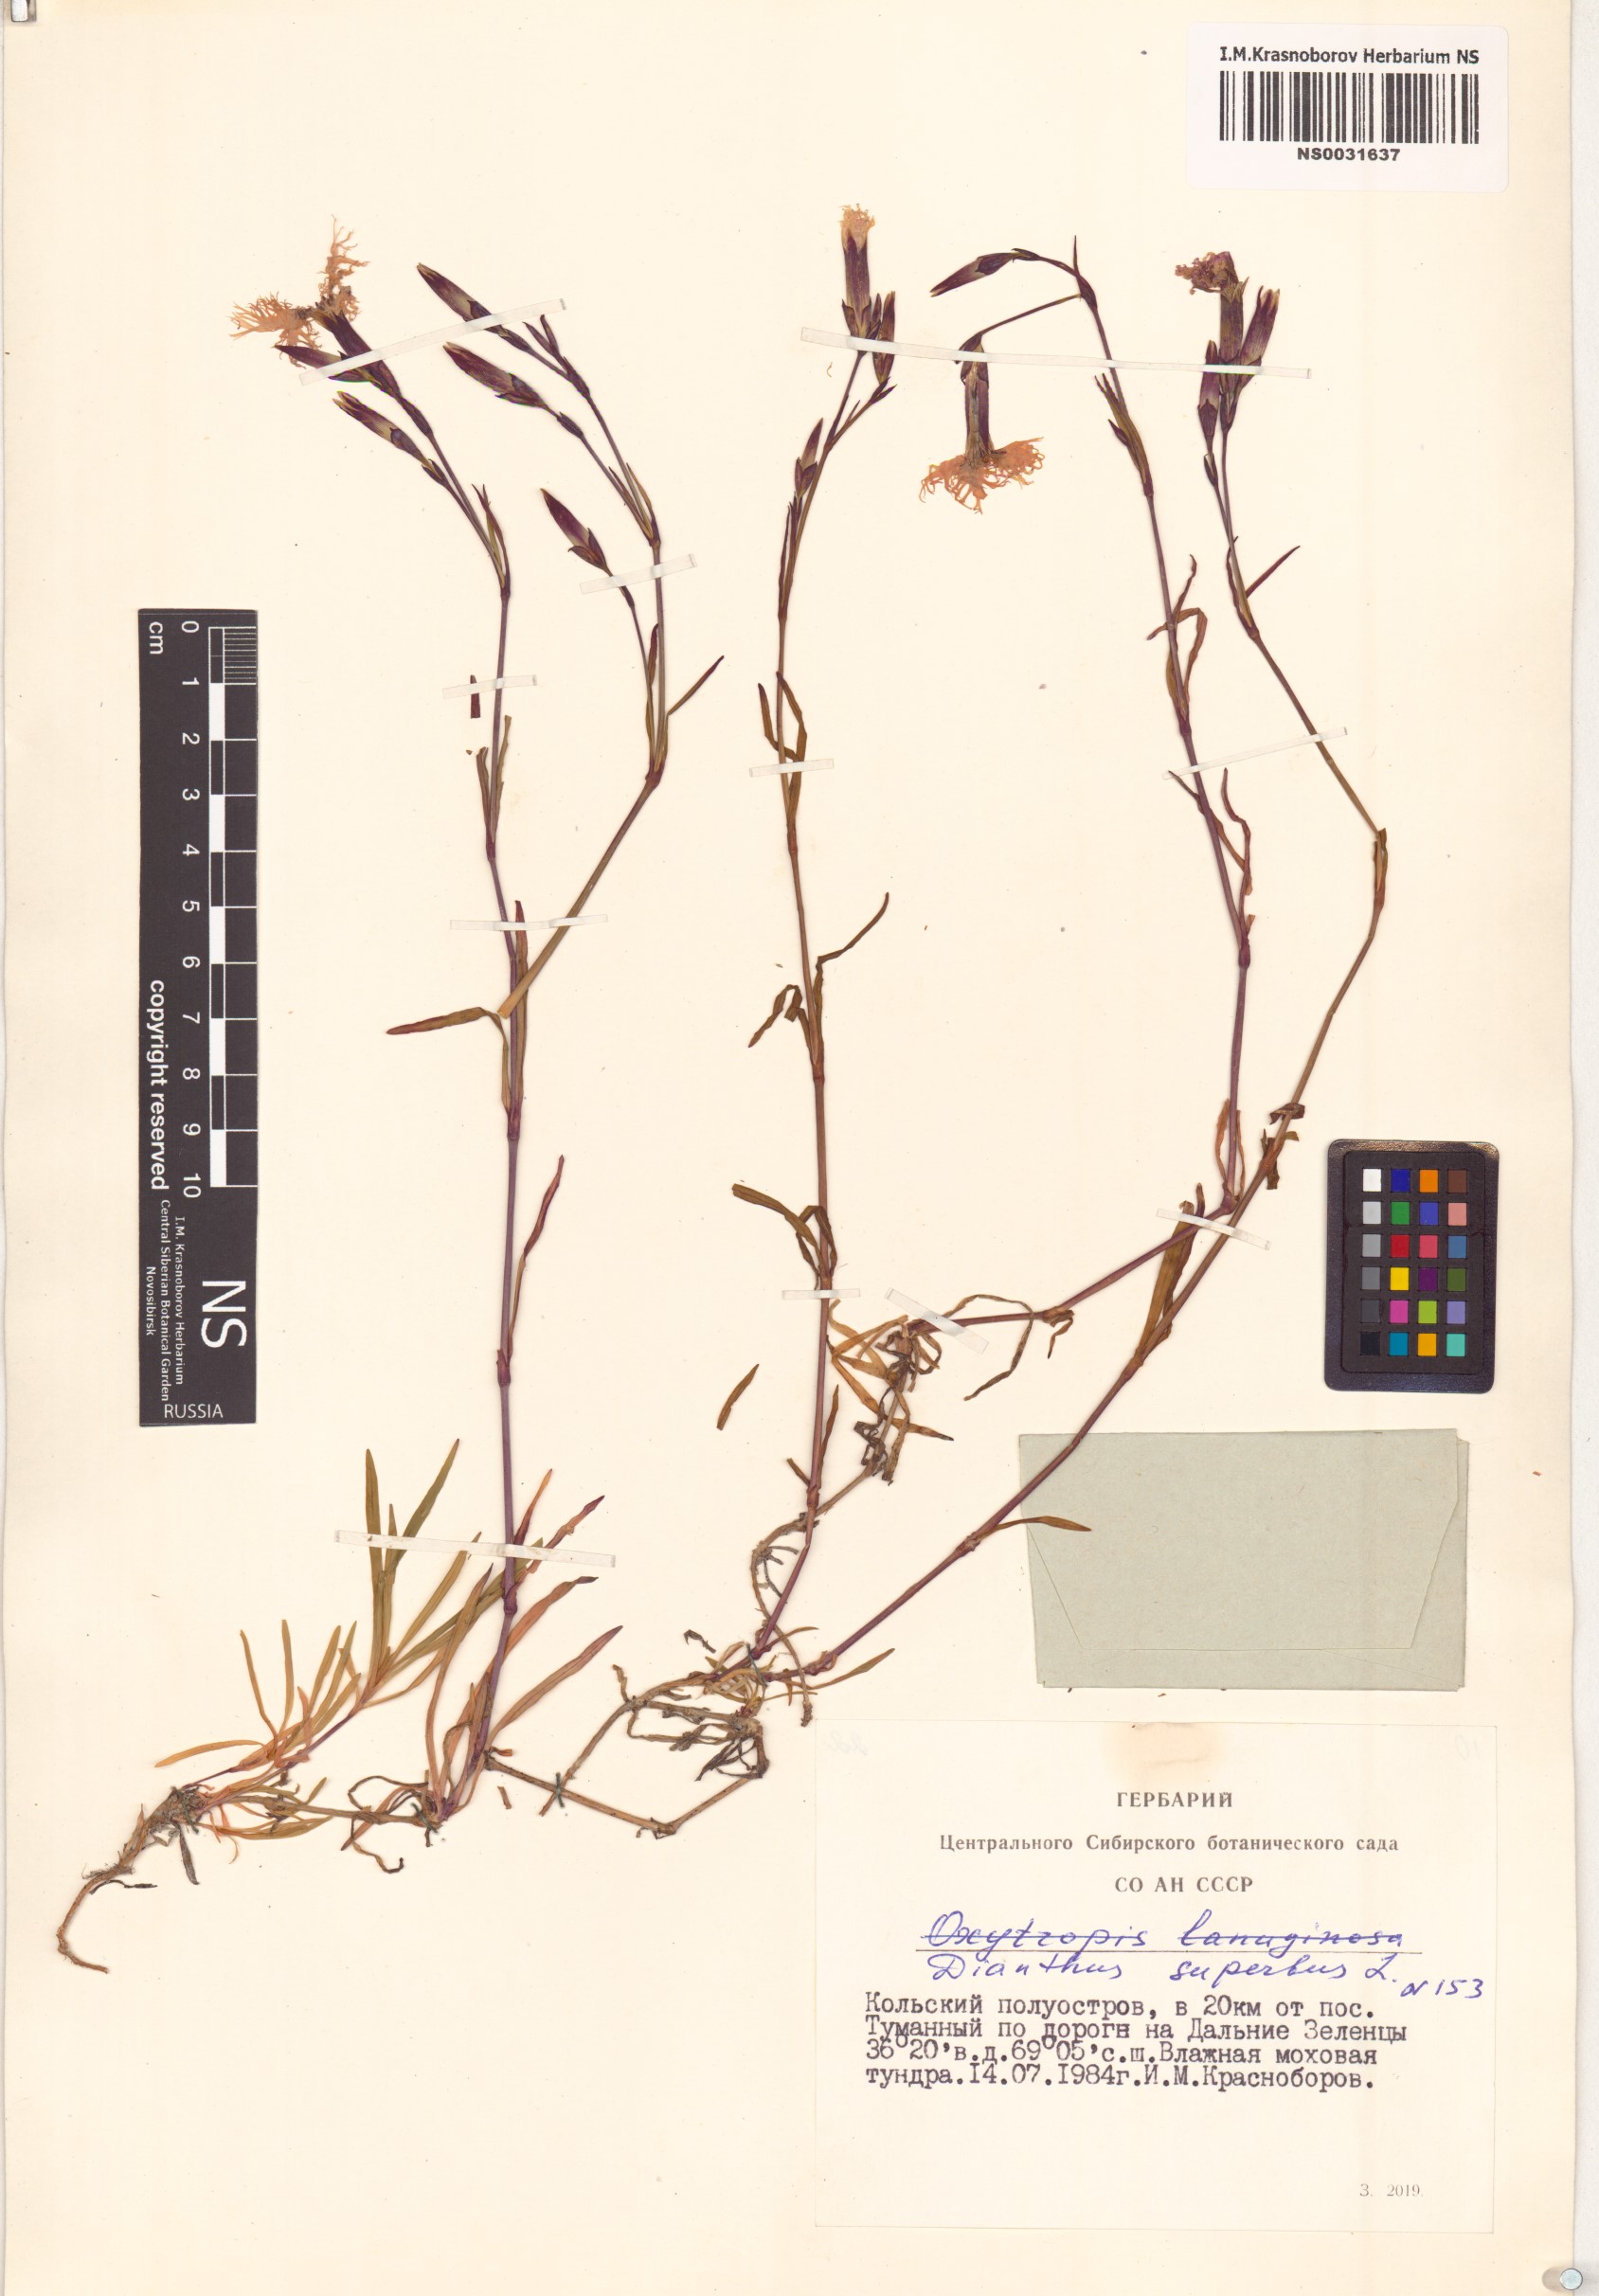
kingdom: Plantae
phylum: Tracheophyta
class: Magnoliopsida
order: Caryophyllales
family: Caryophyllaceae
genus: Dianthus
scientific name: Dianthus superbus
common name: Fringed pink
